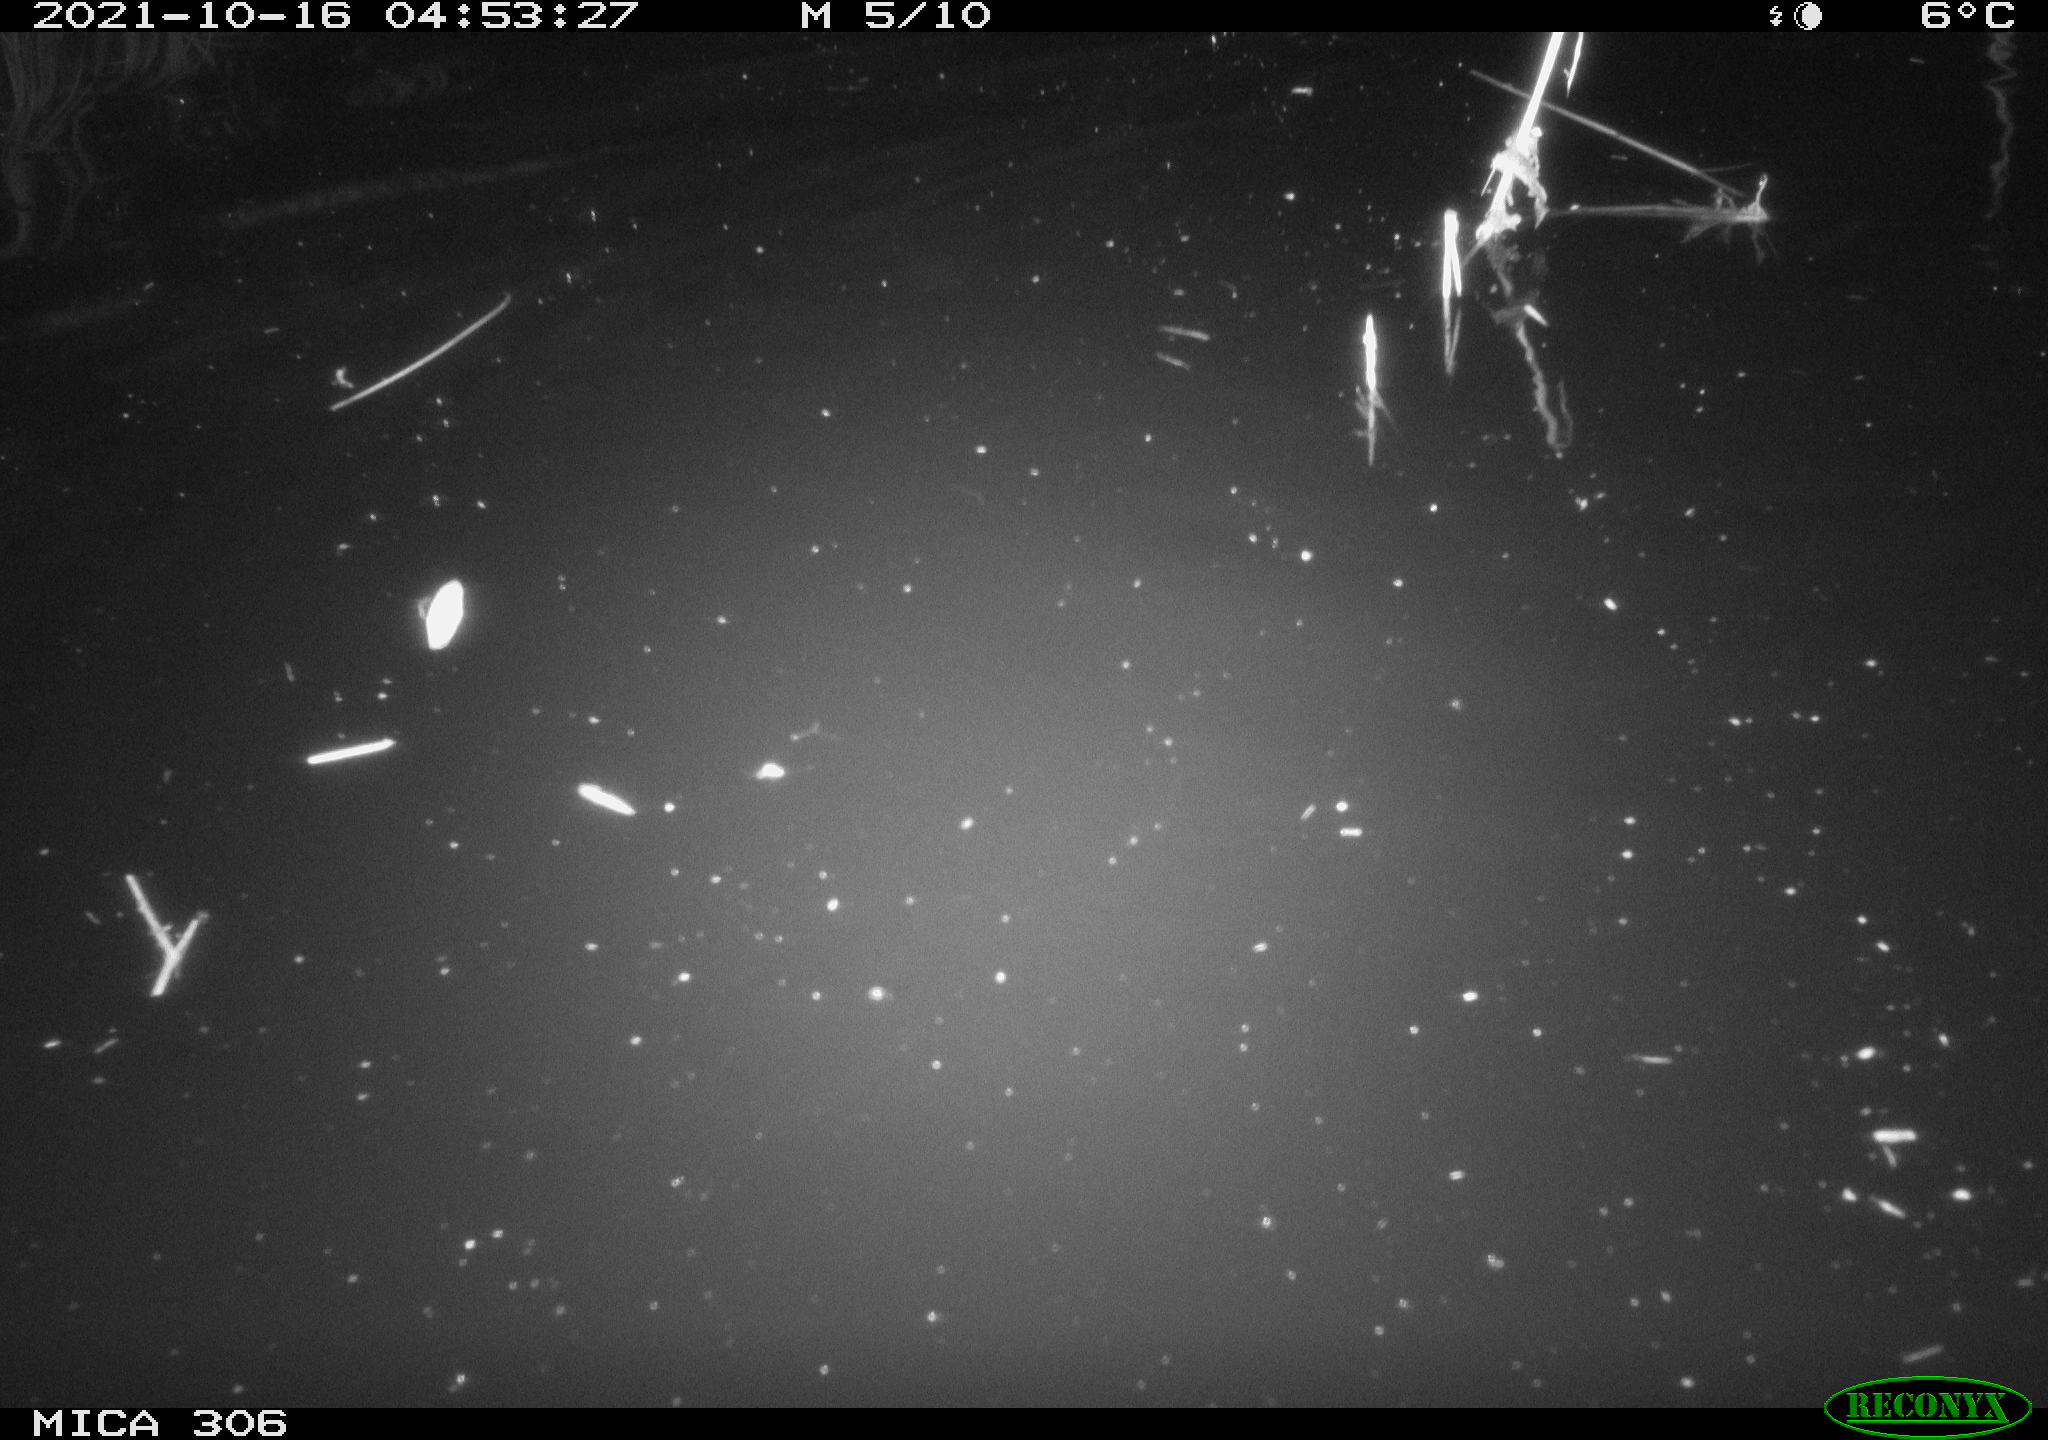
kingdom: Animalia
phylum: Chordata
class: Mammalia
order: Rodentia
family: Cricetidae
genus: Ondatra
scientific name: Ondatra zibethicus
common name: Muskrat
